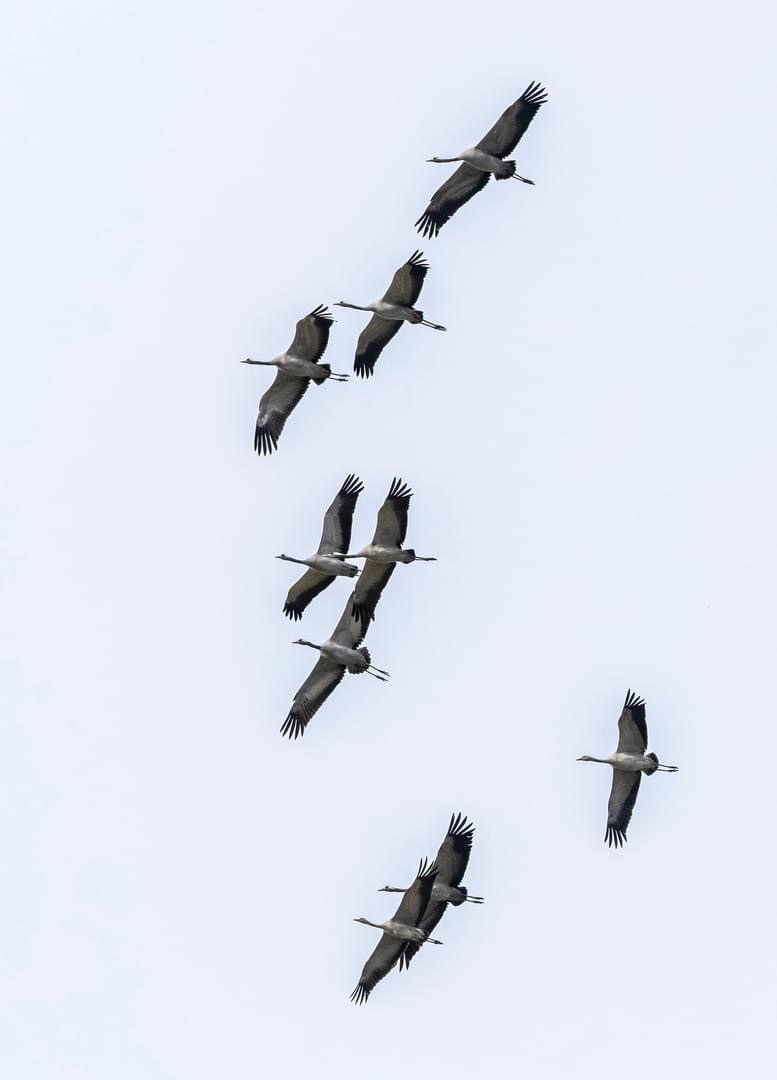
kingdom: Animalia
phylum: Chordata
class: Aves
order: Gruiformes
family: Gruidae
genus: Grus
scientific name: Grus grus
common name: Trane
